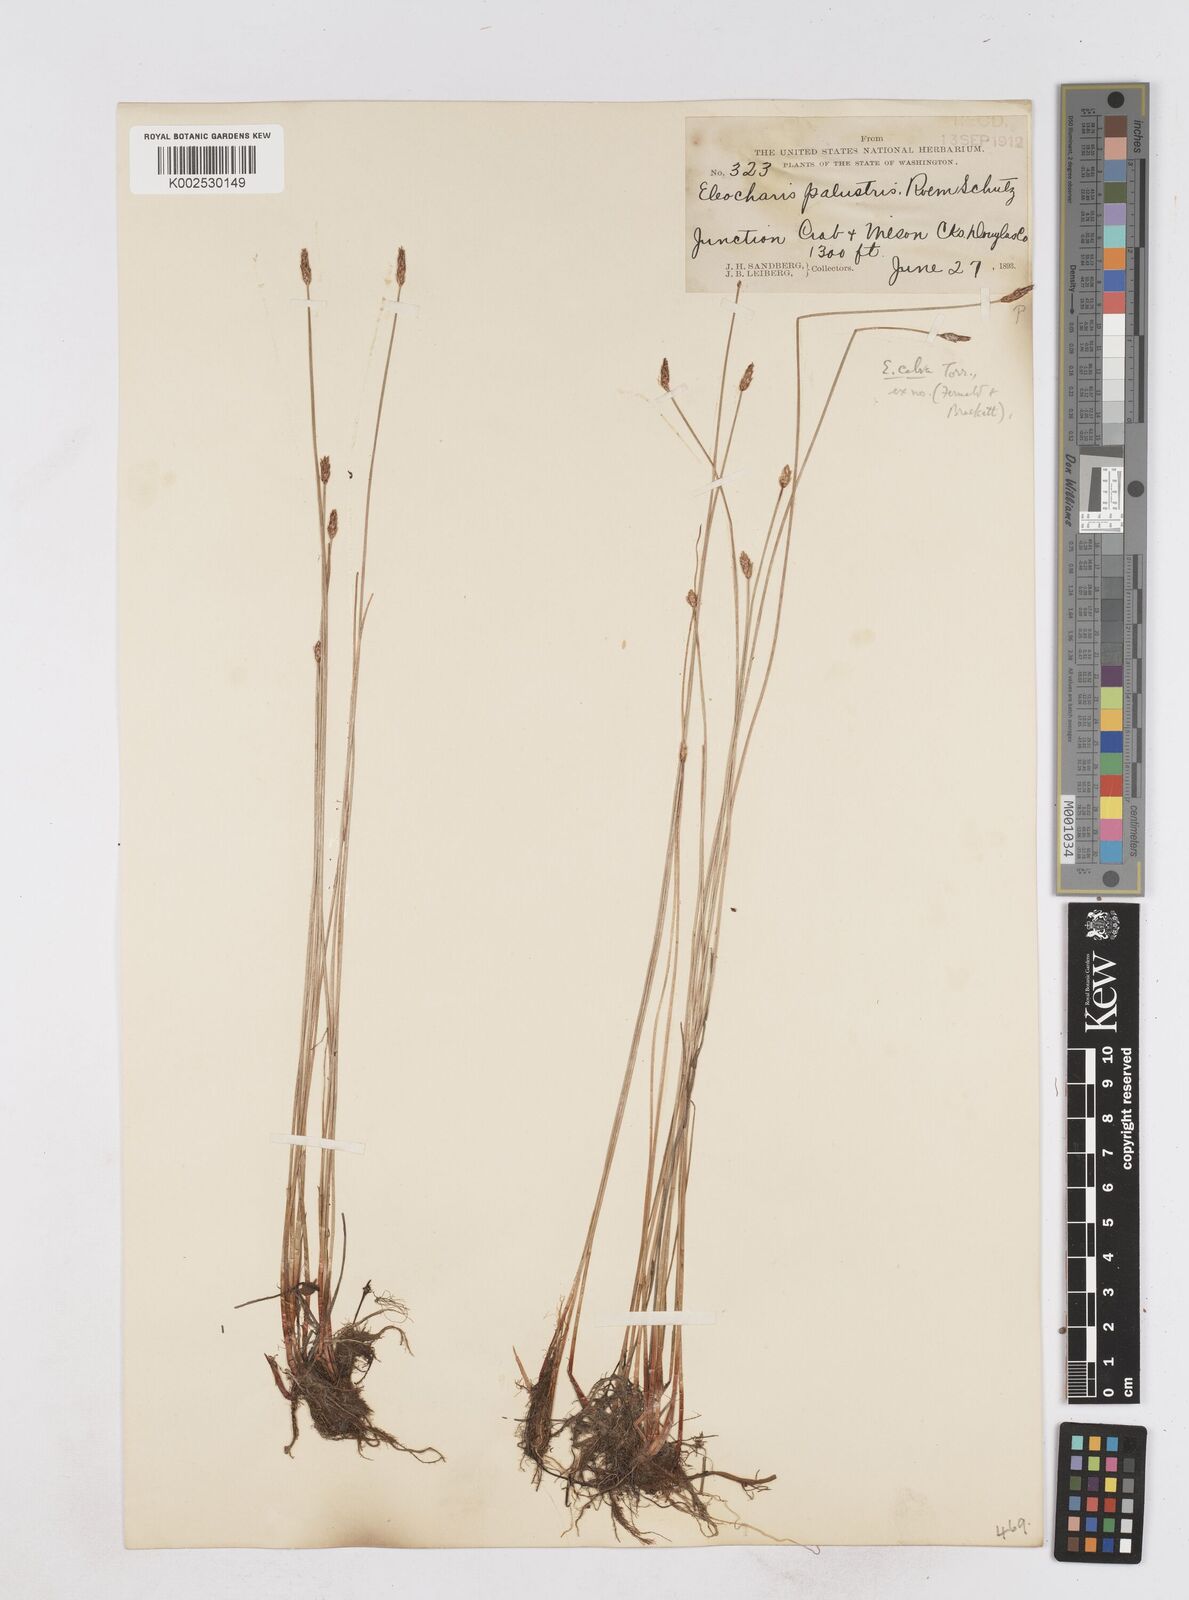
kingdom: Plantae
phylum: Tracheophyta
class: Liliopsida
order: Poales
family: Cyperaceae
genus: Eleocharis
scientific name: Eleocharis erythropoda
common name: Bald spikerush
